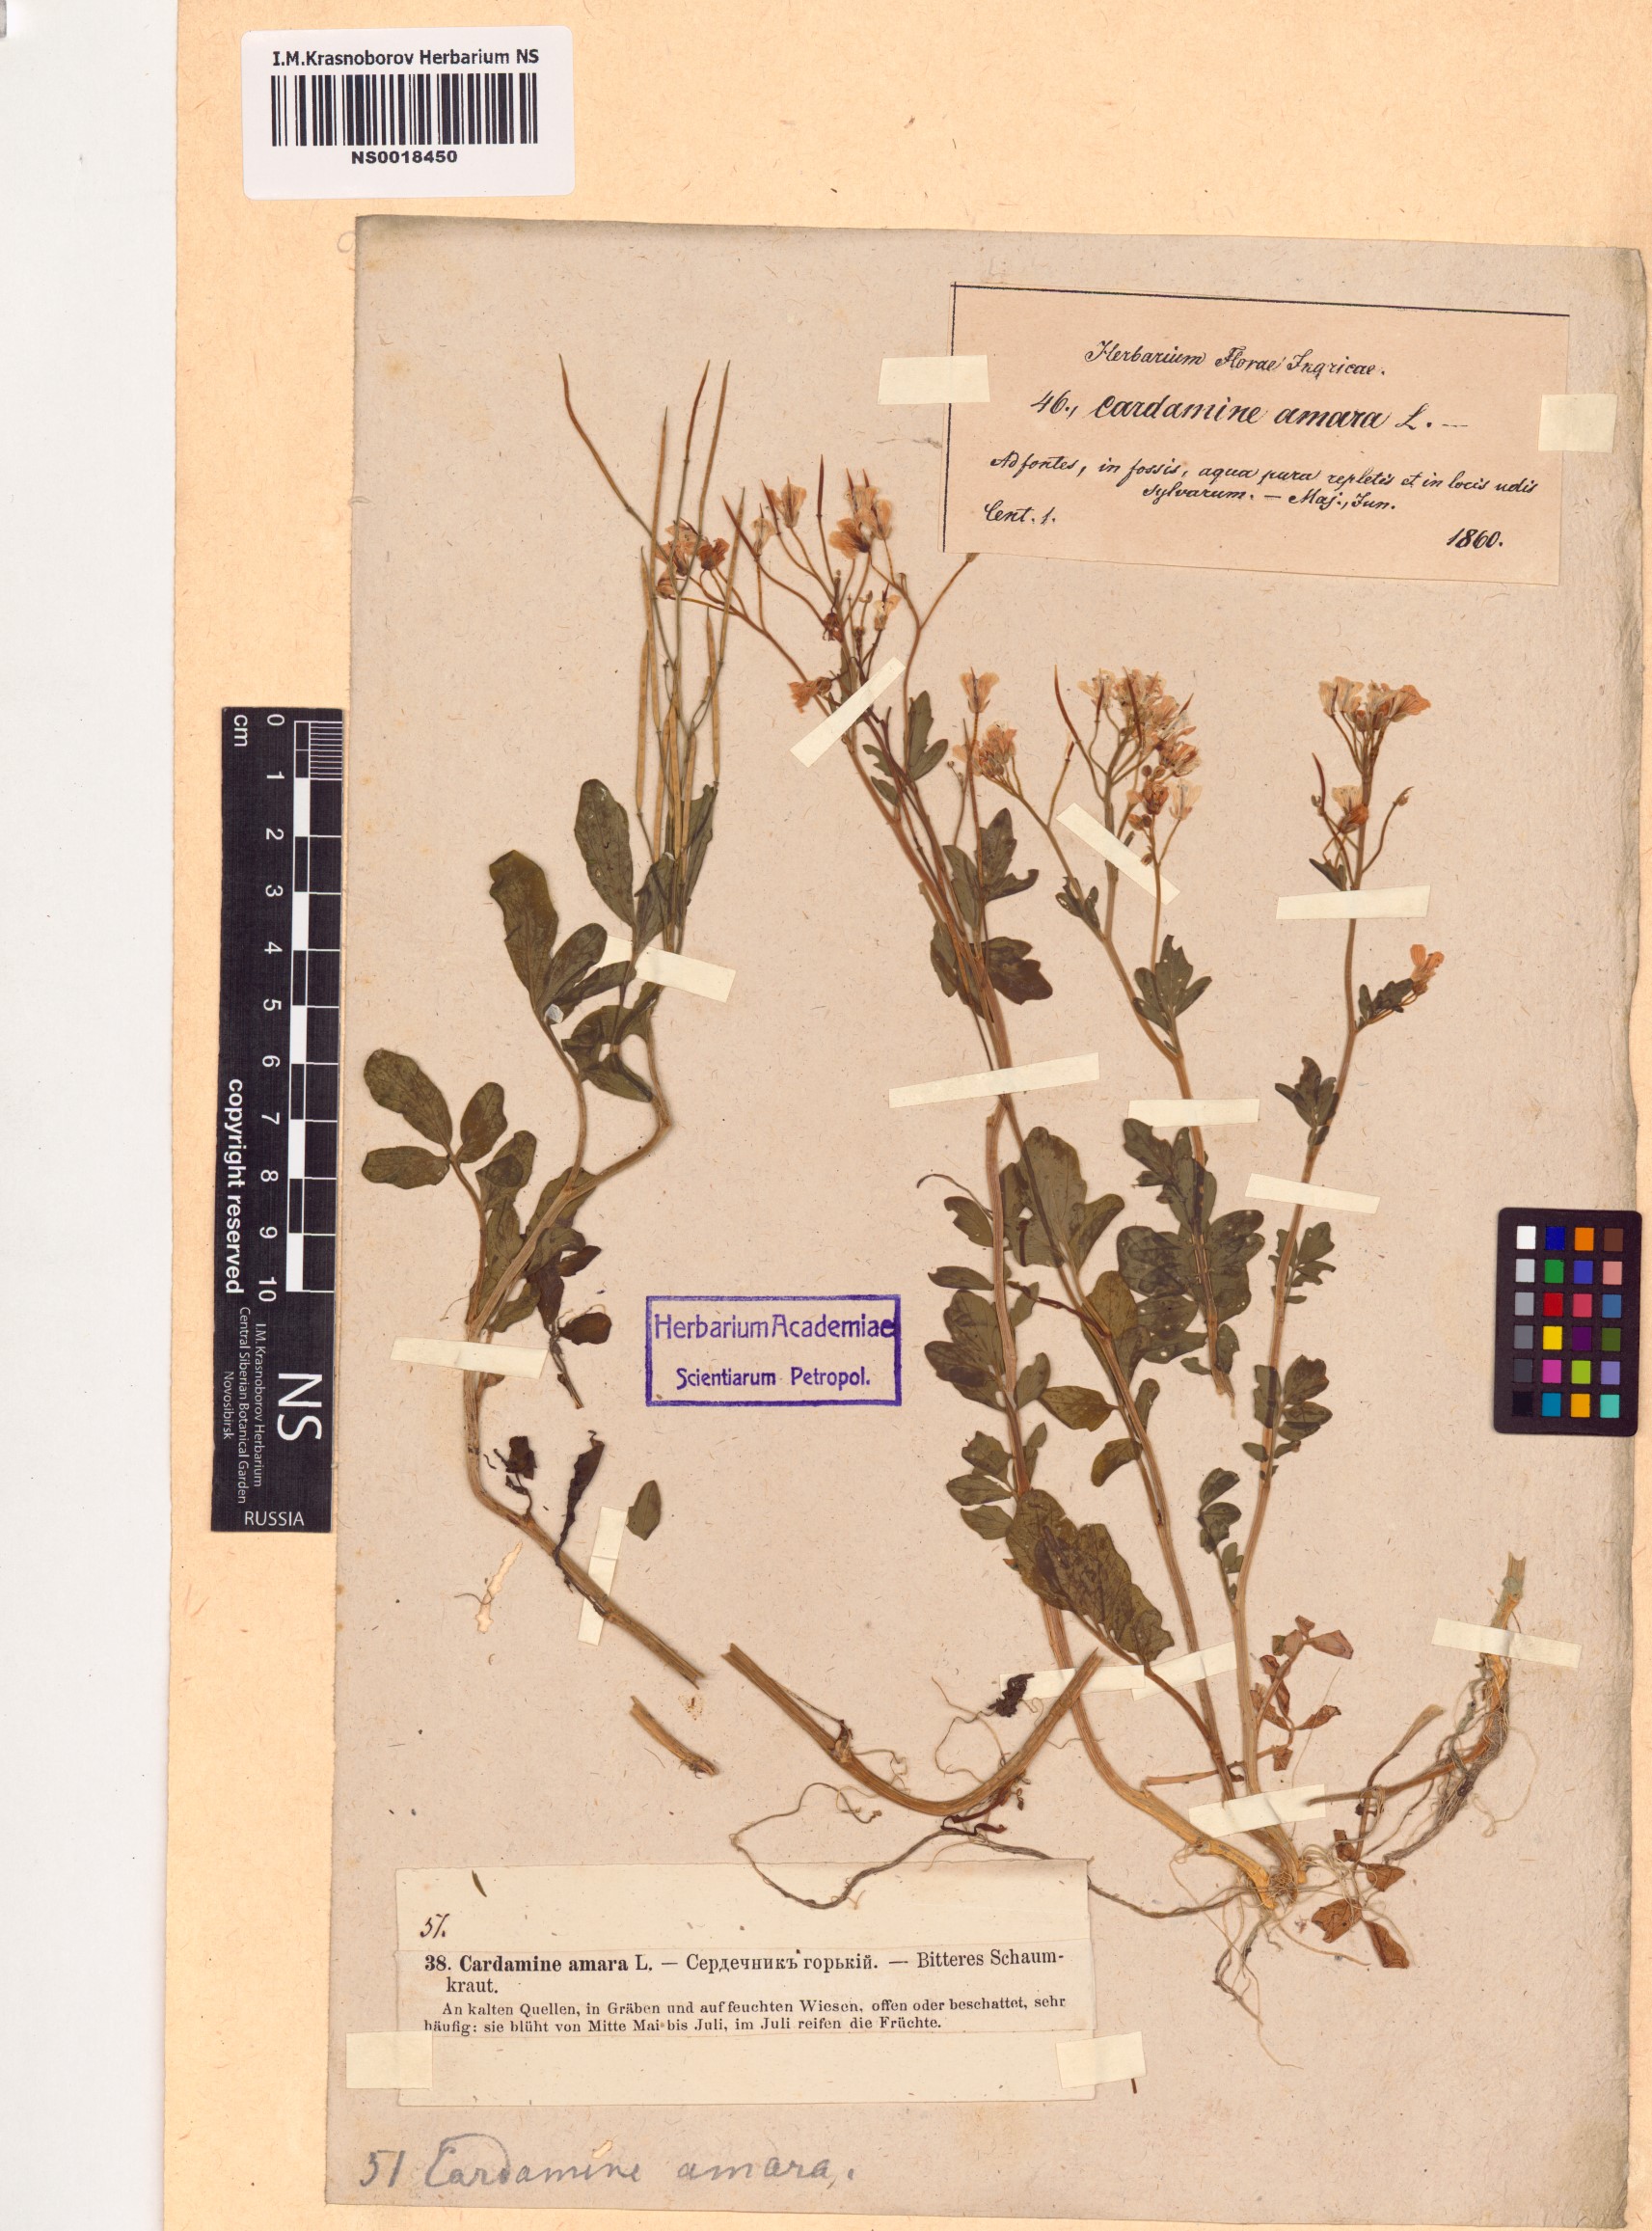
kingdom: Plantae
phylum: Tracheophyta
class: Magnoliopsida
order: Brassicales
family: Brassicaceae
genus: Cardamine
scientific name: Cardamine amara
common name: Large bitter-cress
